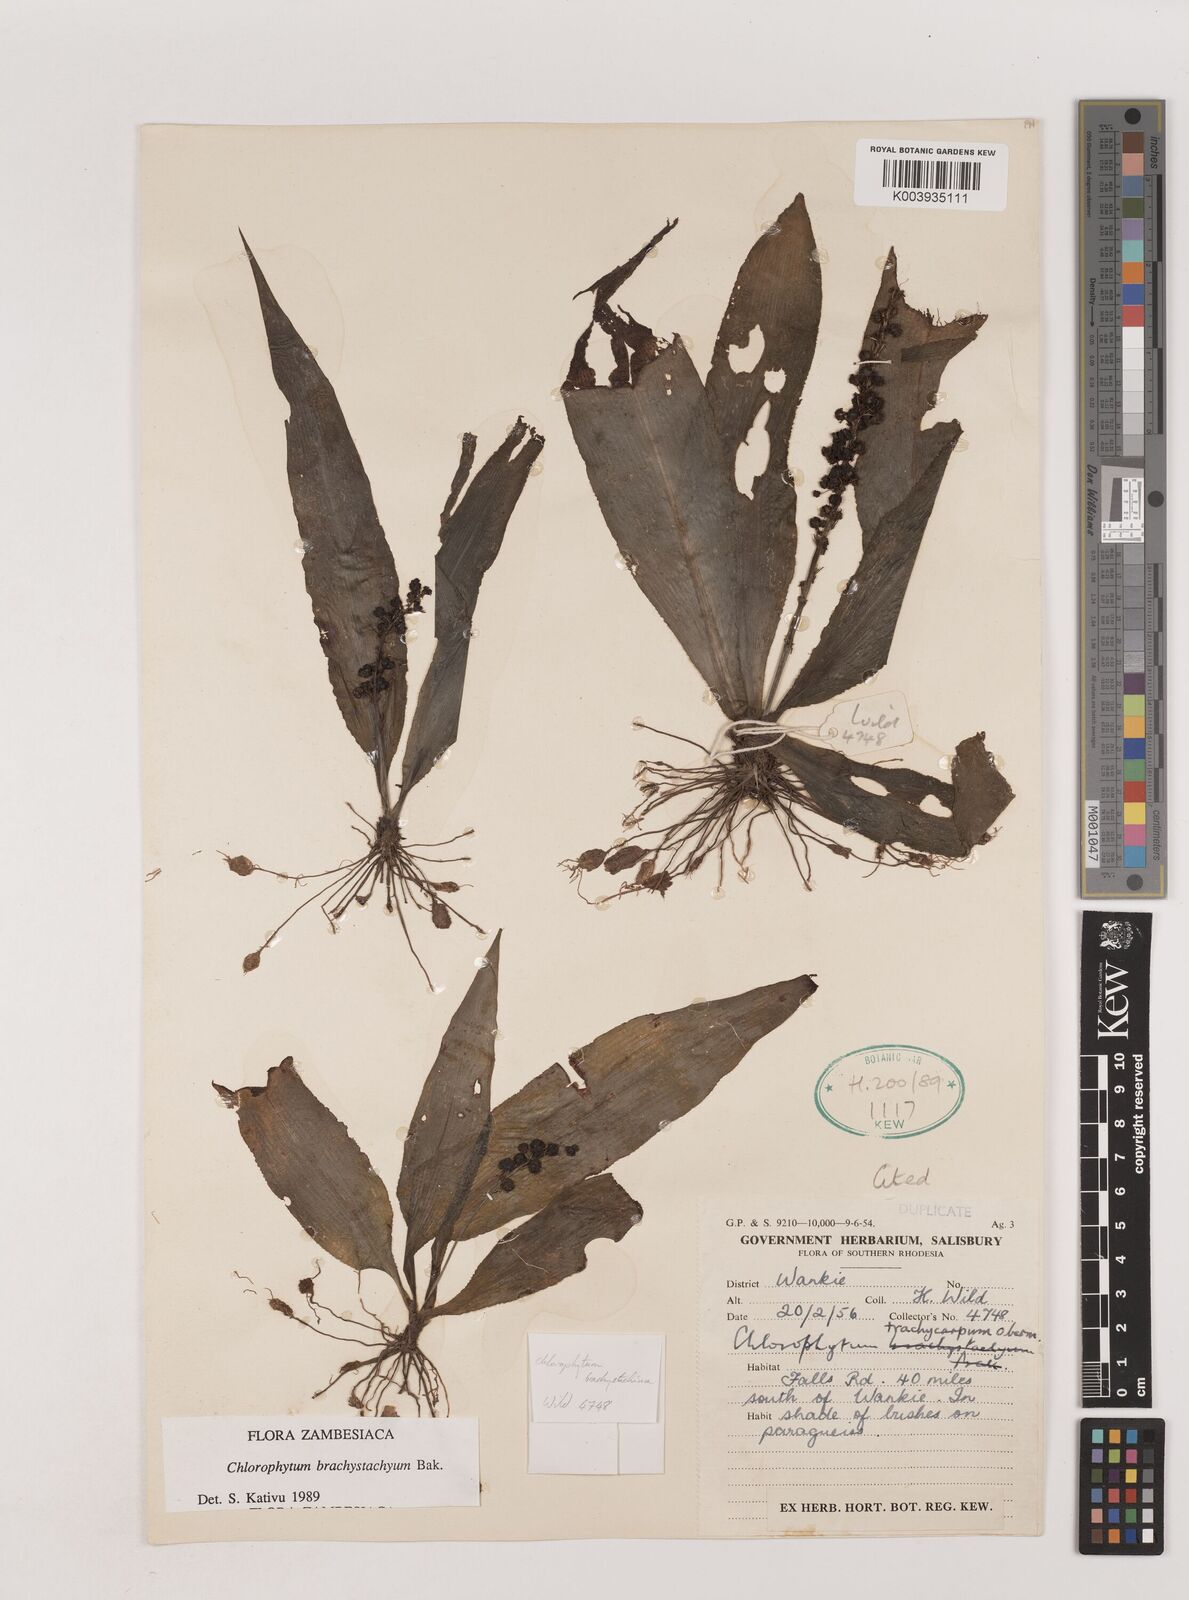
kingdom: Plantae
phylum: Tracheophyta
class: Liliopsida
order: Asparagales
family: Asparagaceae
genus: Chlorophytum
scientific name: Chlorophytum brachystachyum
